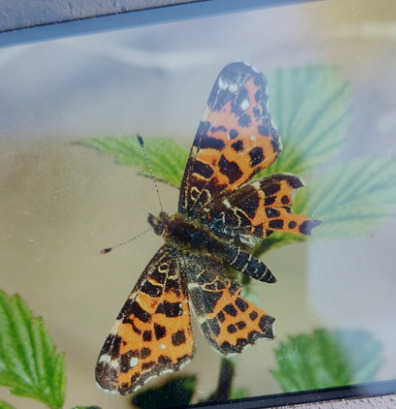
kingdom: Animalia
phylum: Arthropoda
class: Insecta
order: Lepidoptera
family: Nymphalidae
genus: Araschnia
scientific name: Araschnia levana
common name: Nældesommerfugl
